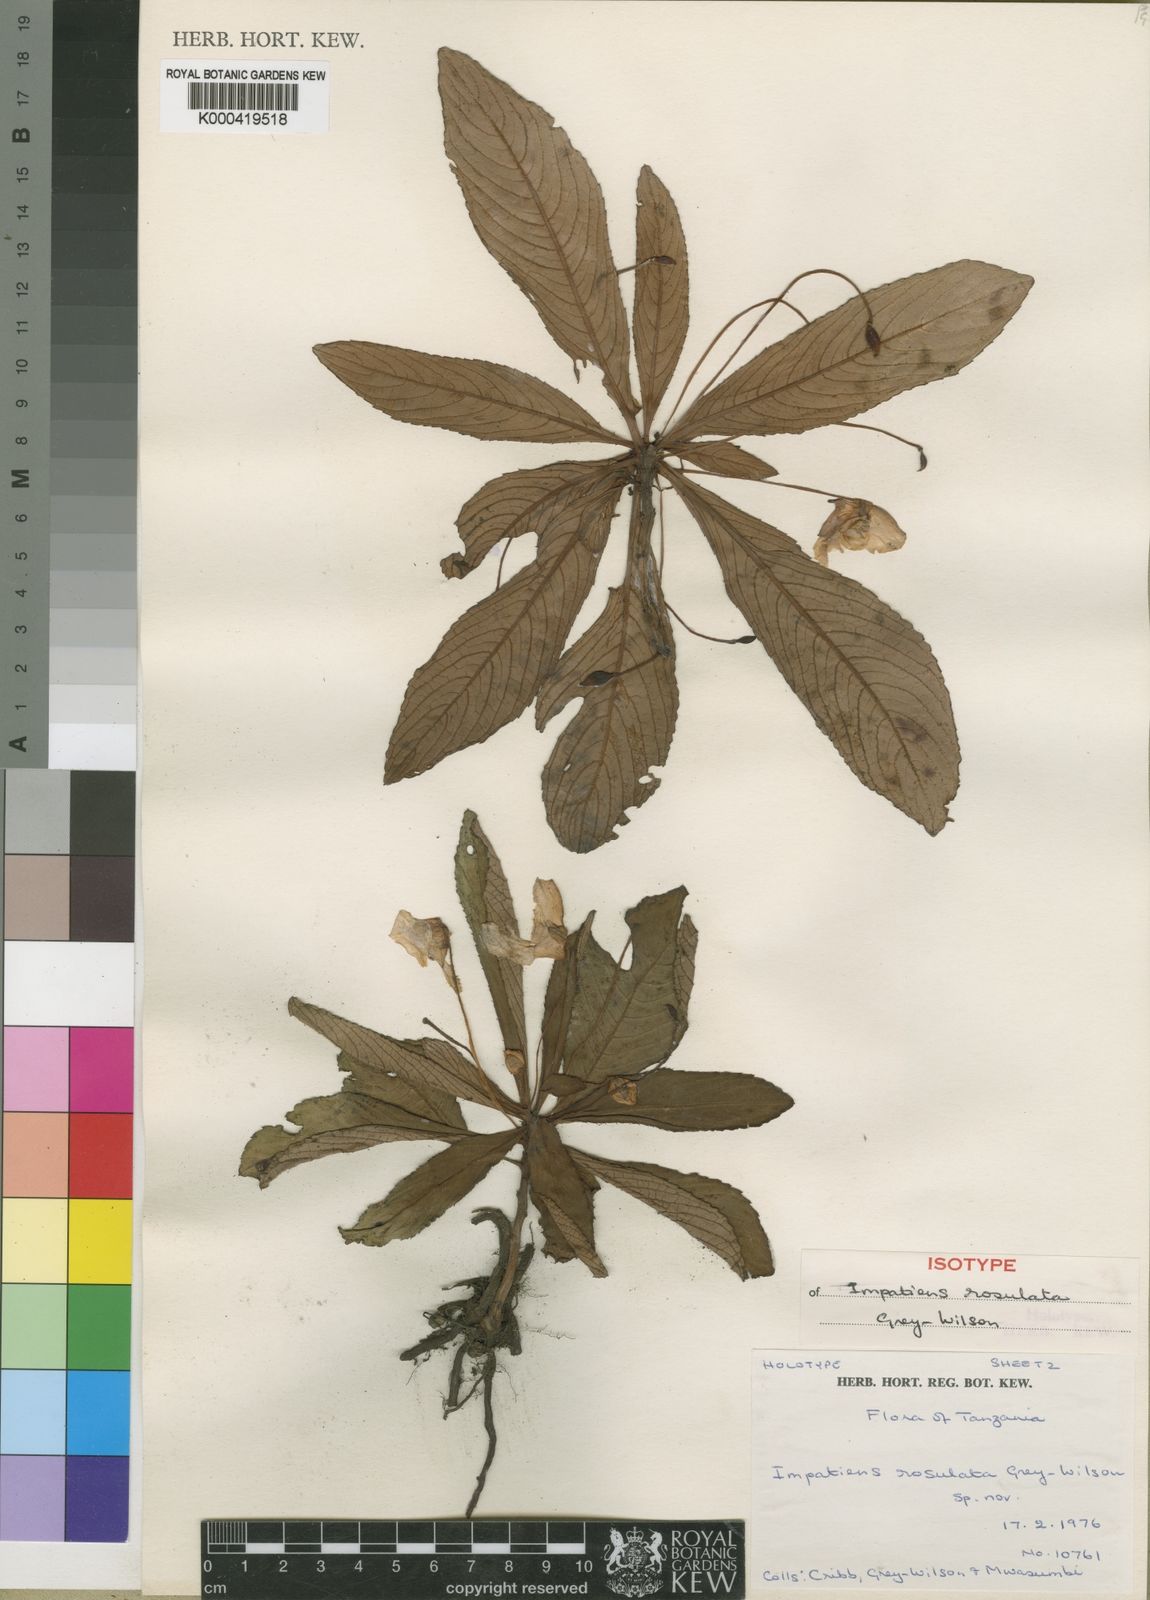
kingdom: Plantae
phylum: Tracheophyta
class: Magnoliopsida
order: Ericales
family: Balsaminaceae
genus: Impatiens
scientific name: Impatiens rosulata
